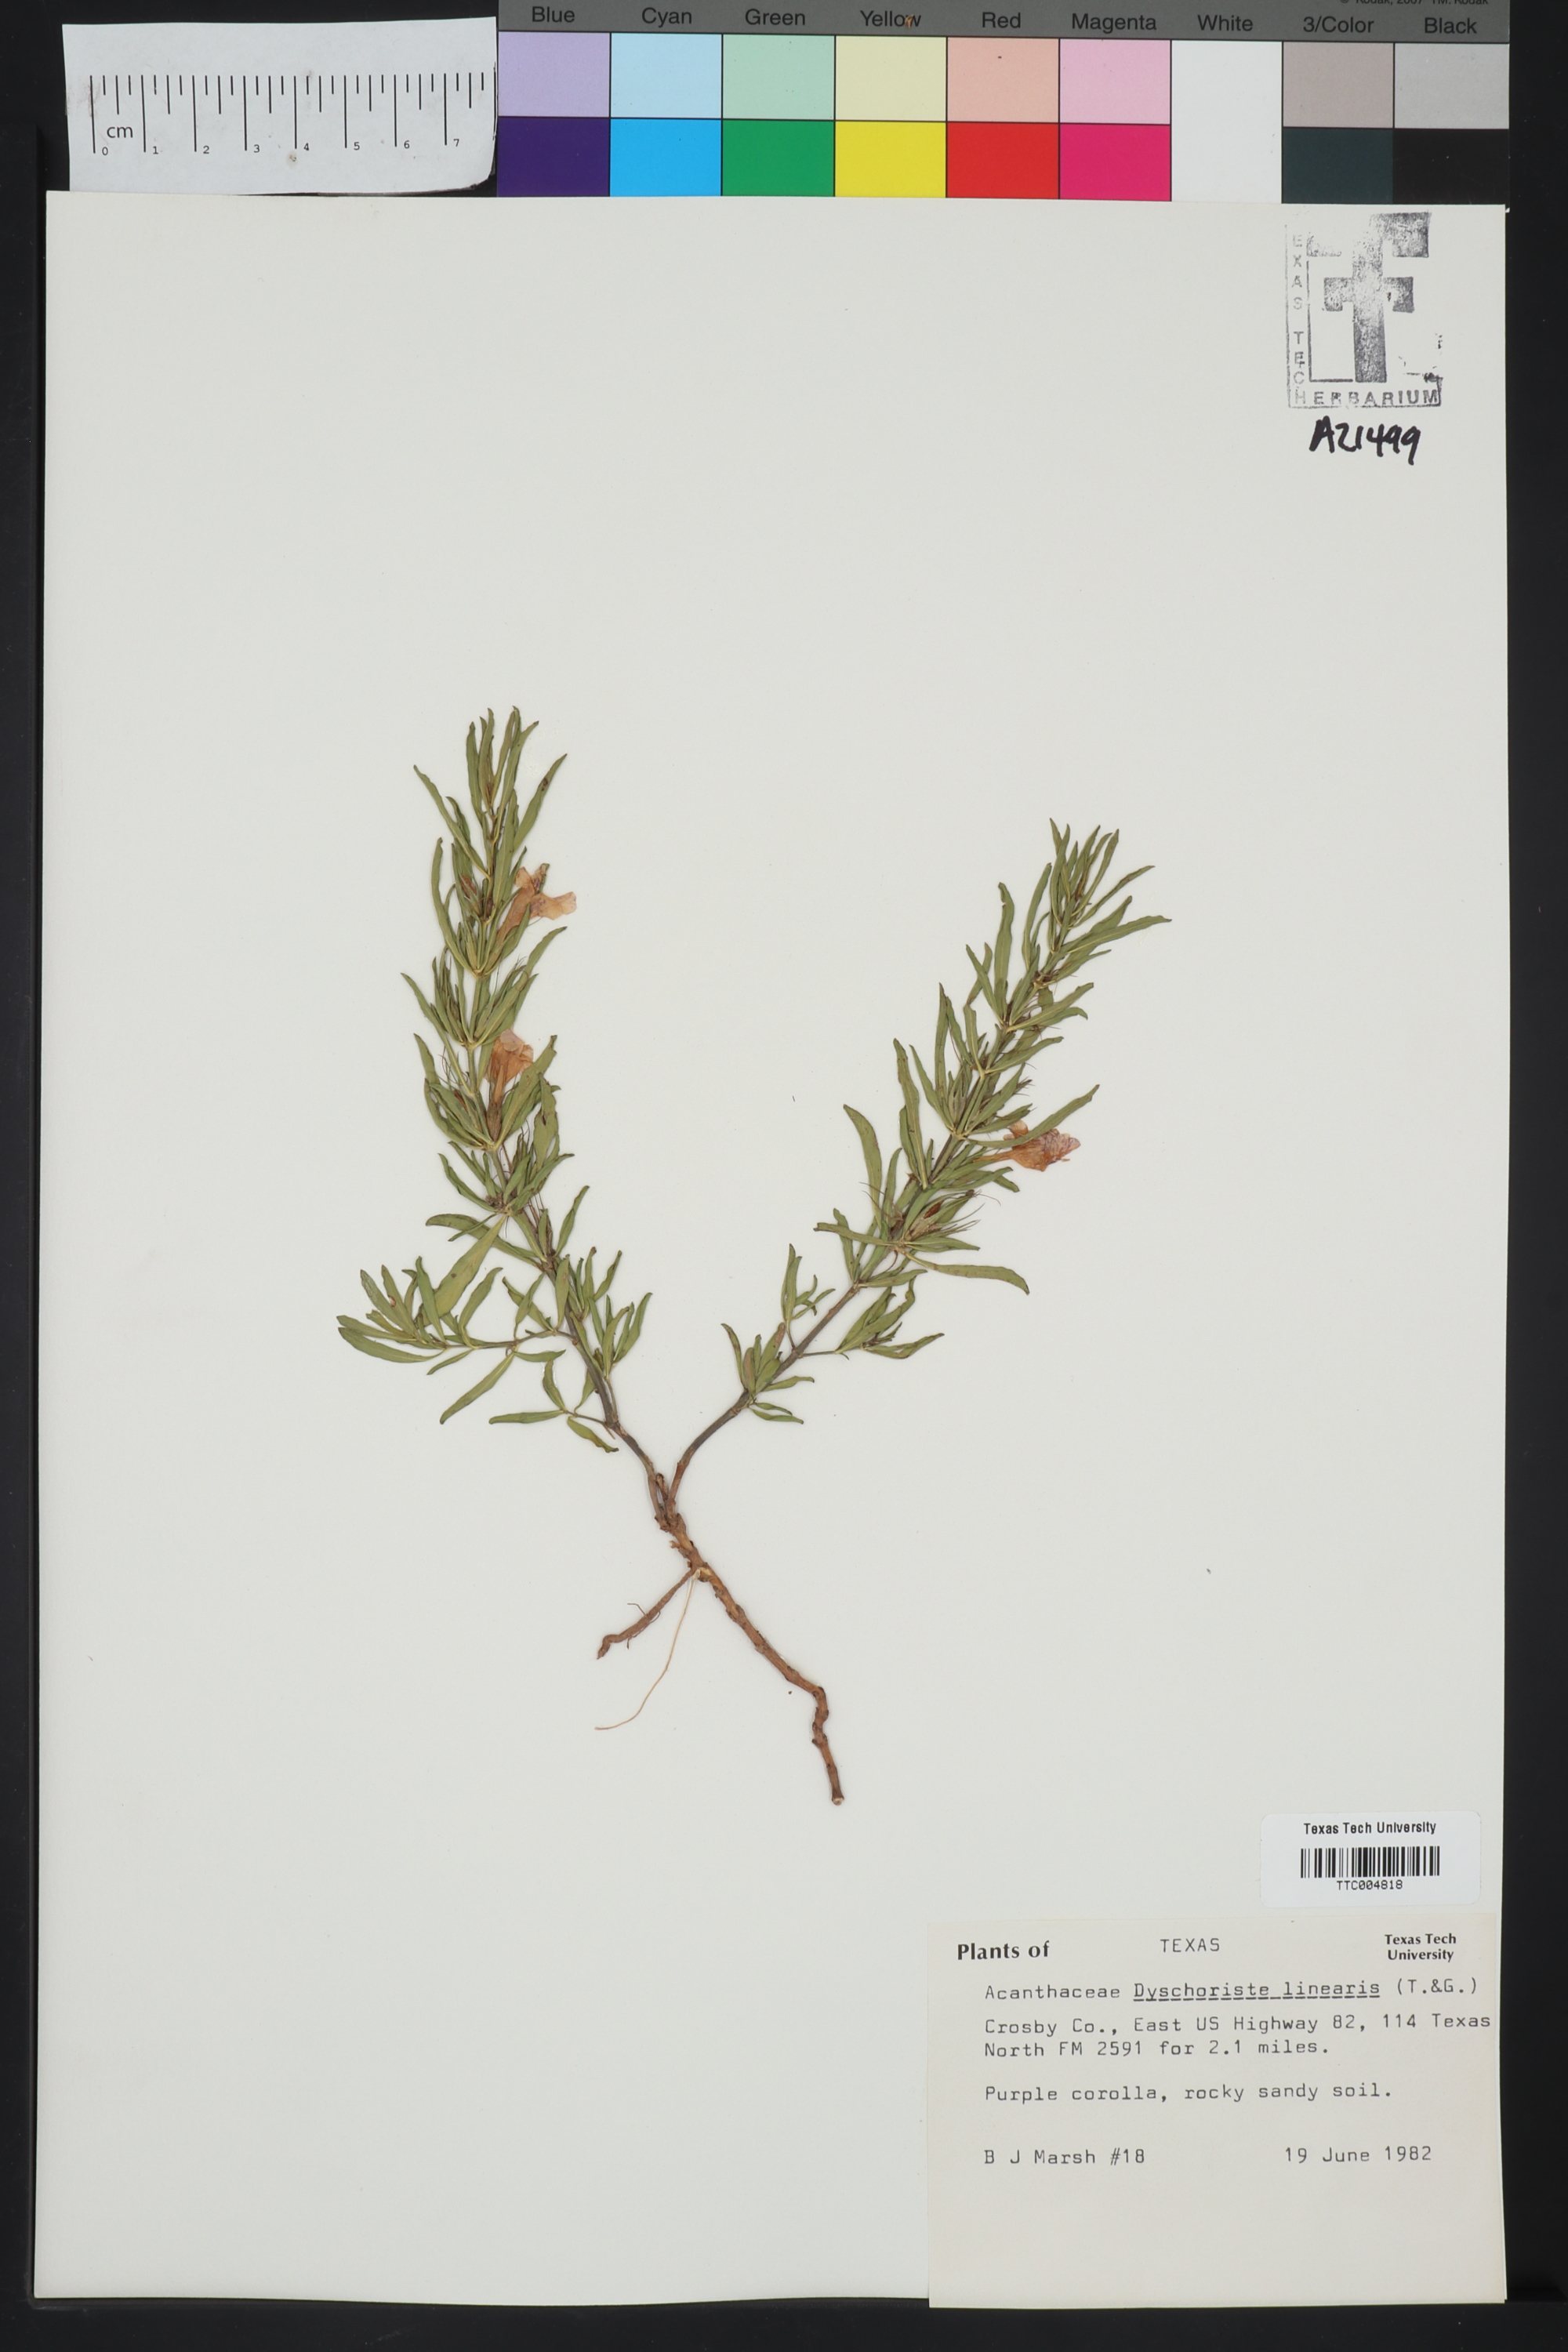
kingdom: Plantae
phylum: Tracheophyta
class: Magnoliopsida
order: Lamiales
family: Acanthaceae
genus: Dyschoriste
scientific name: Dyschoriste linearis
